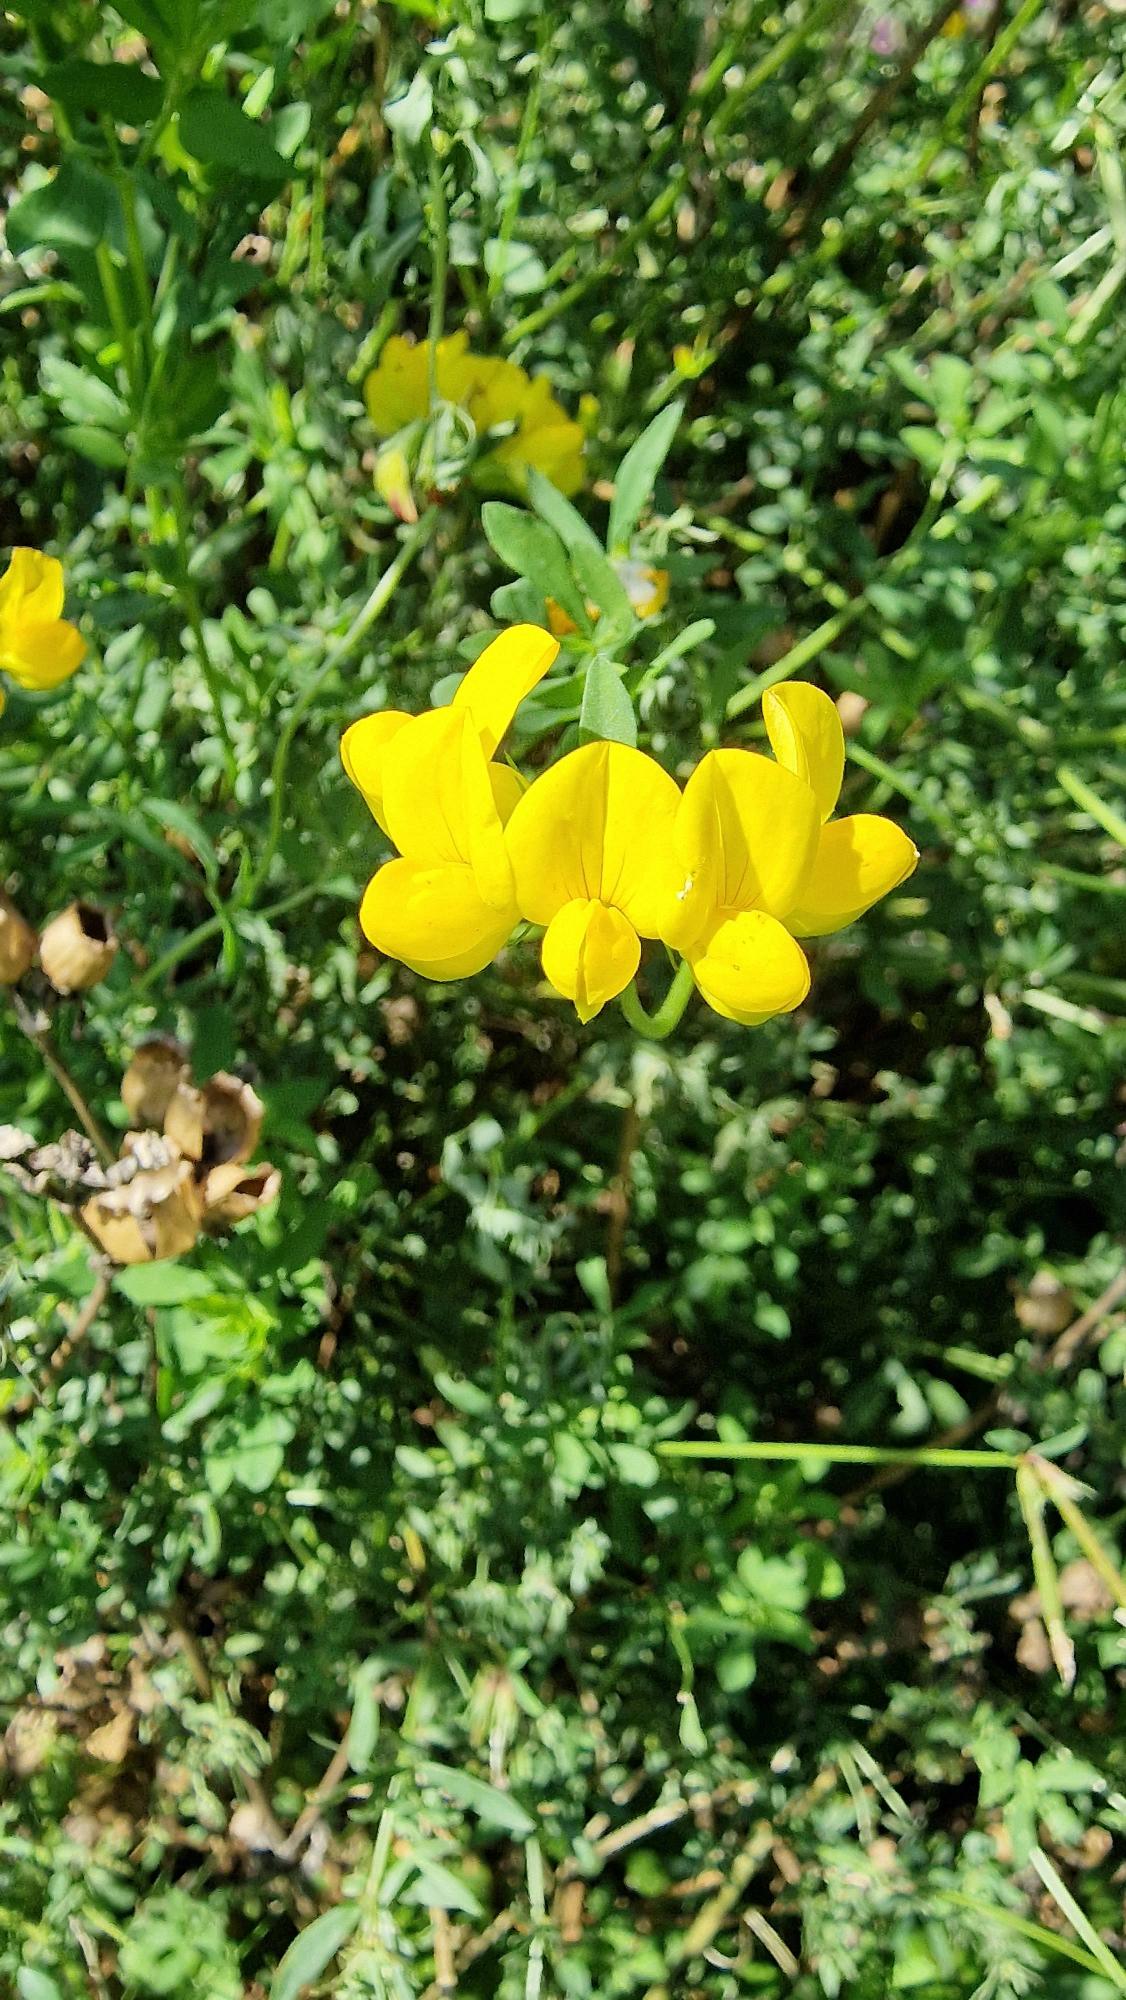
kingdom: Plantae
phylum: Tracheophyta
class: Magnoliopsida
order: Fabales
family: Fabaceae
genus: Lotus
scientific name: Lotus corniculatus
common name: Almindelig kællingetand
